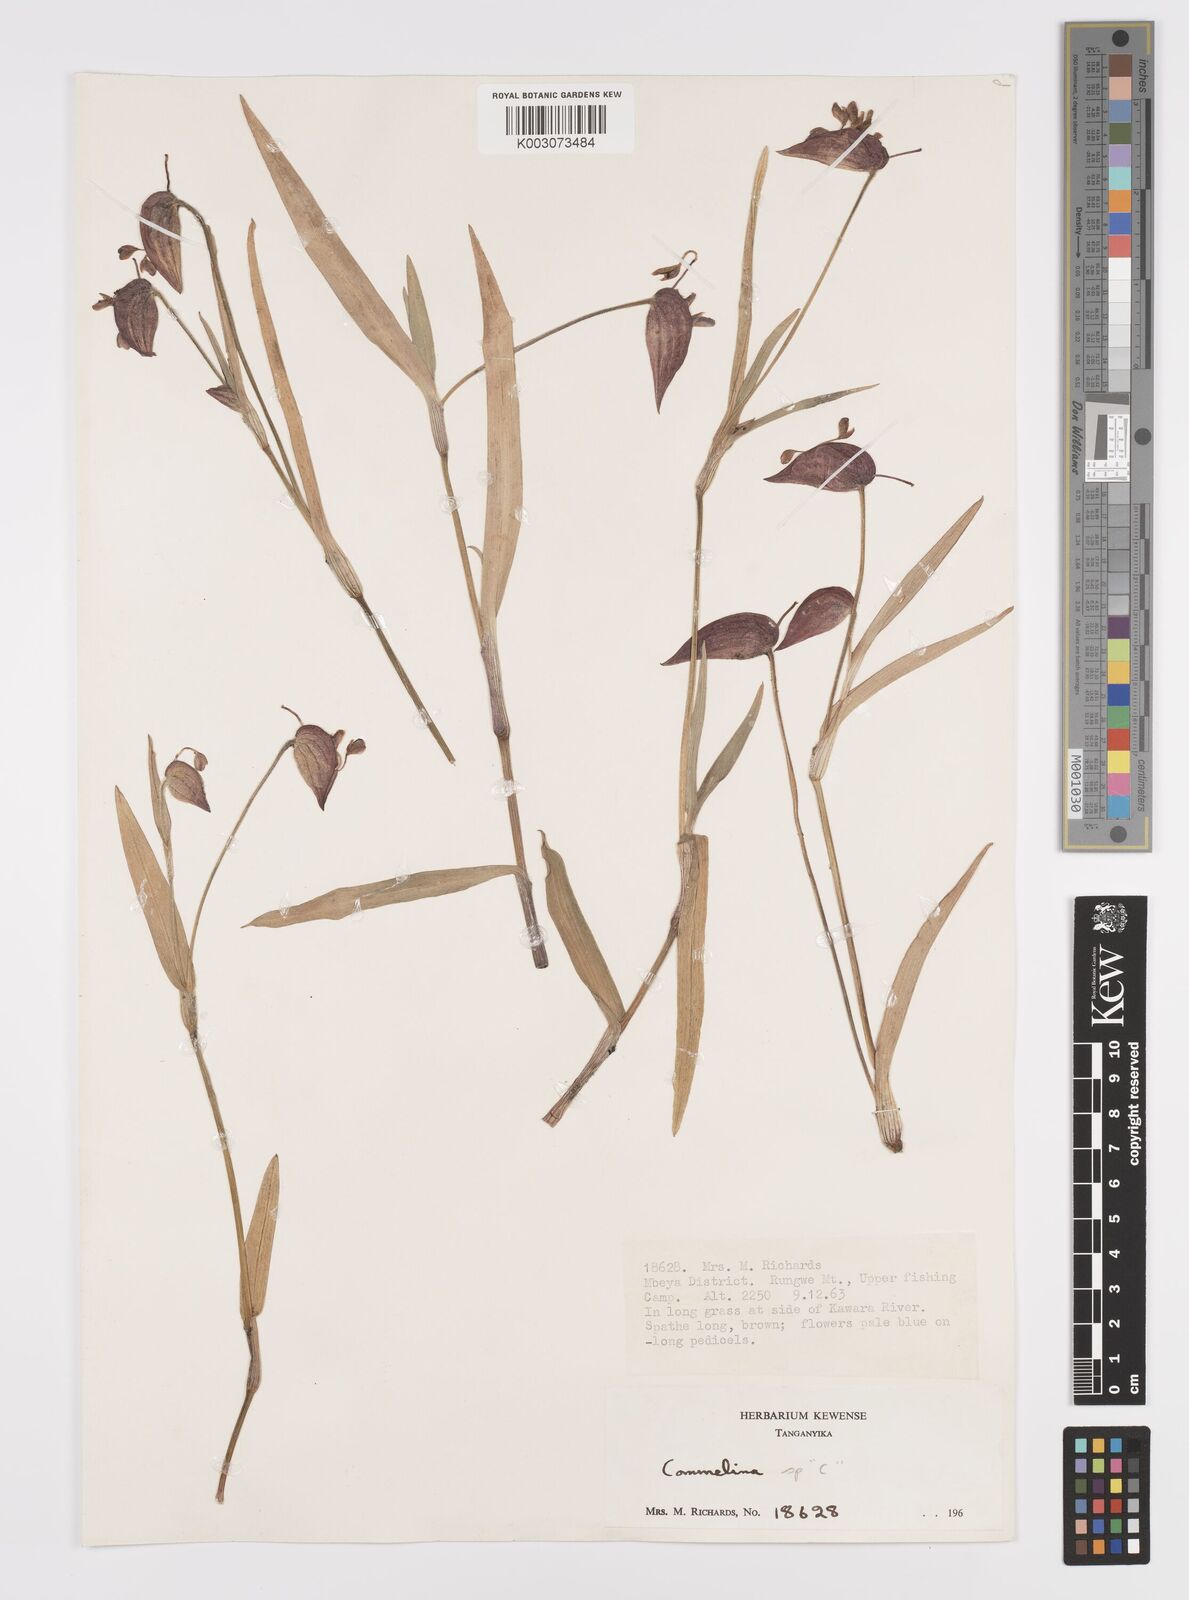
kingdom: Plantae
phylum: Tracheophyta
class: Liliopsida
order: Commelinales
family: Commelinaceae
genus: Commelina
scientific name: Commelina kituloensis
